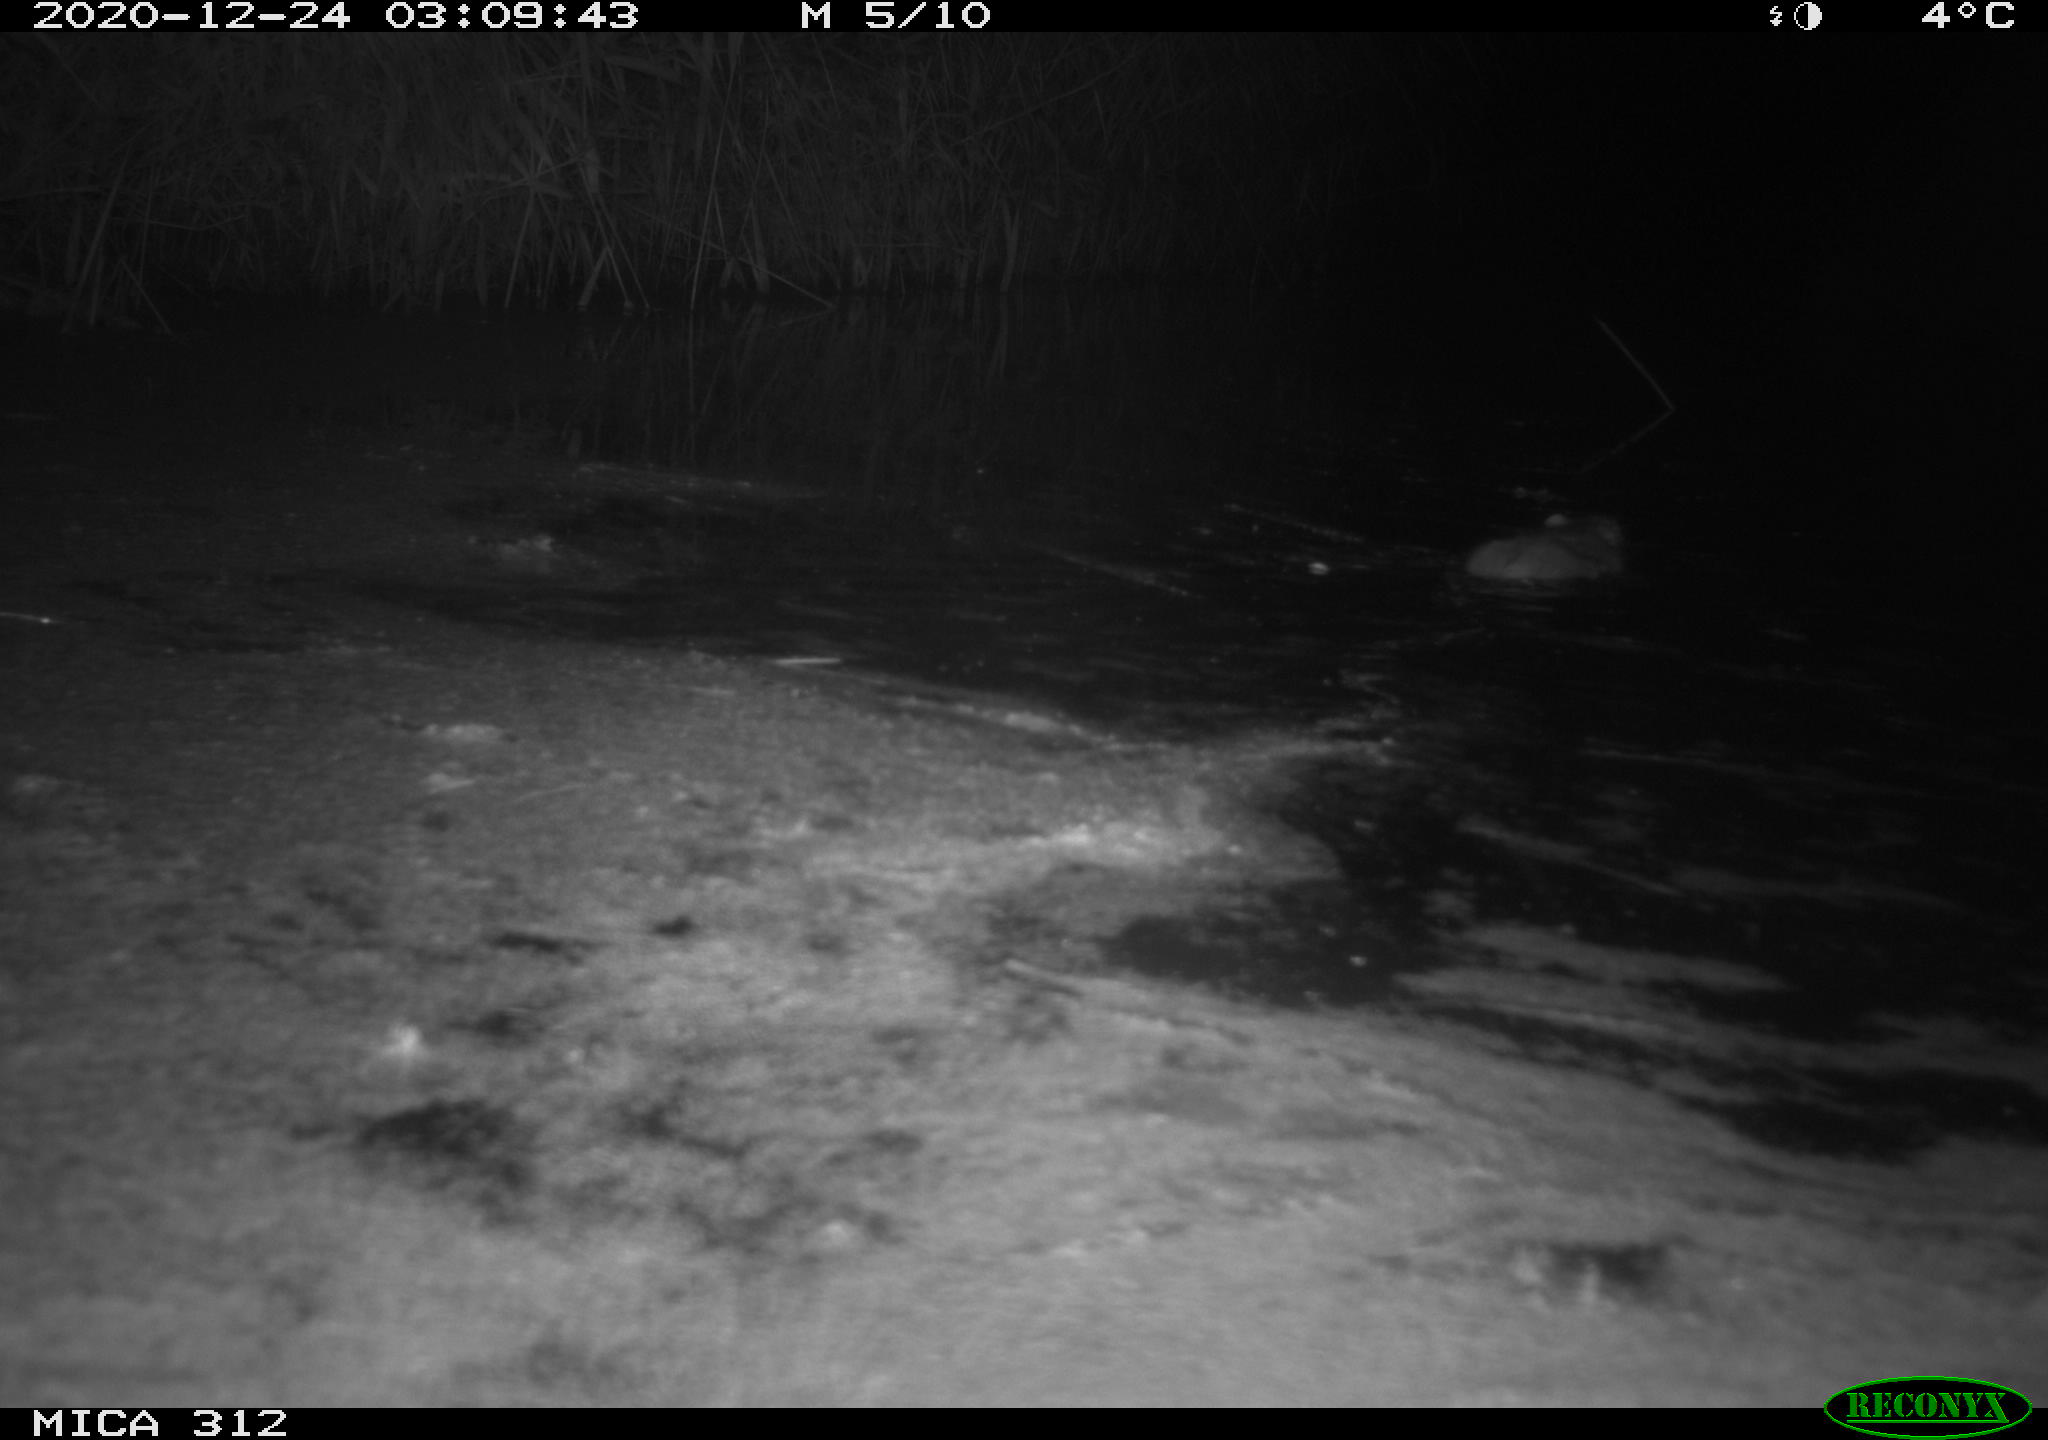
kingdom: Animalia
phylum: Chordata
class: Mammalia
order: Rodentia
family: Muridae
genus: Rattus
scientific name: Rattus norvegicus
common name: Brown rat
